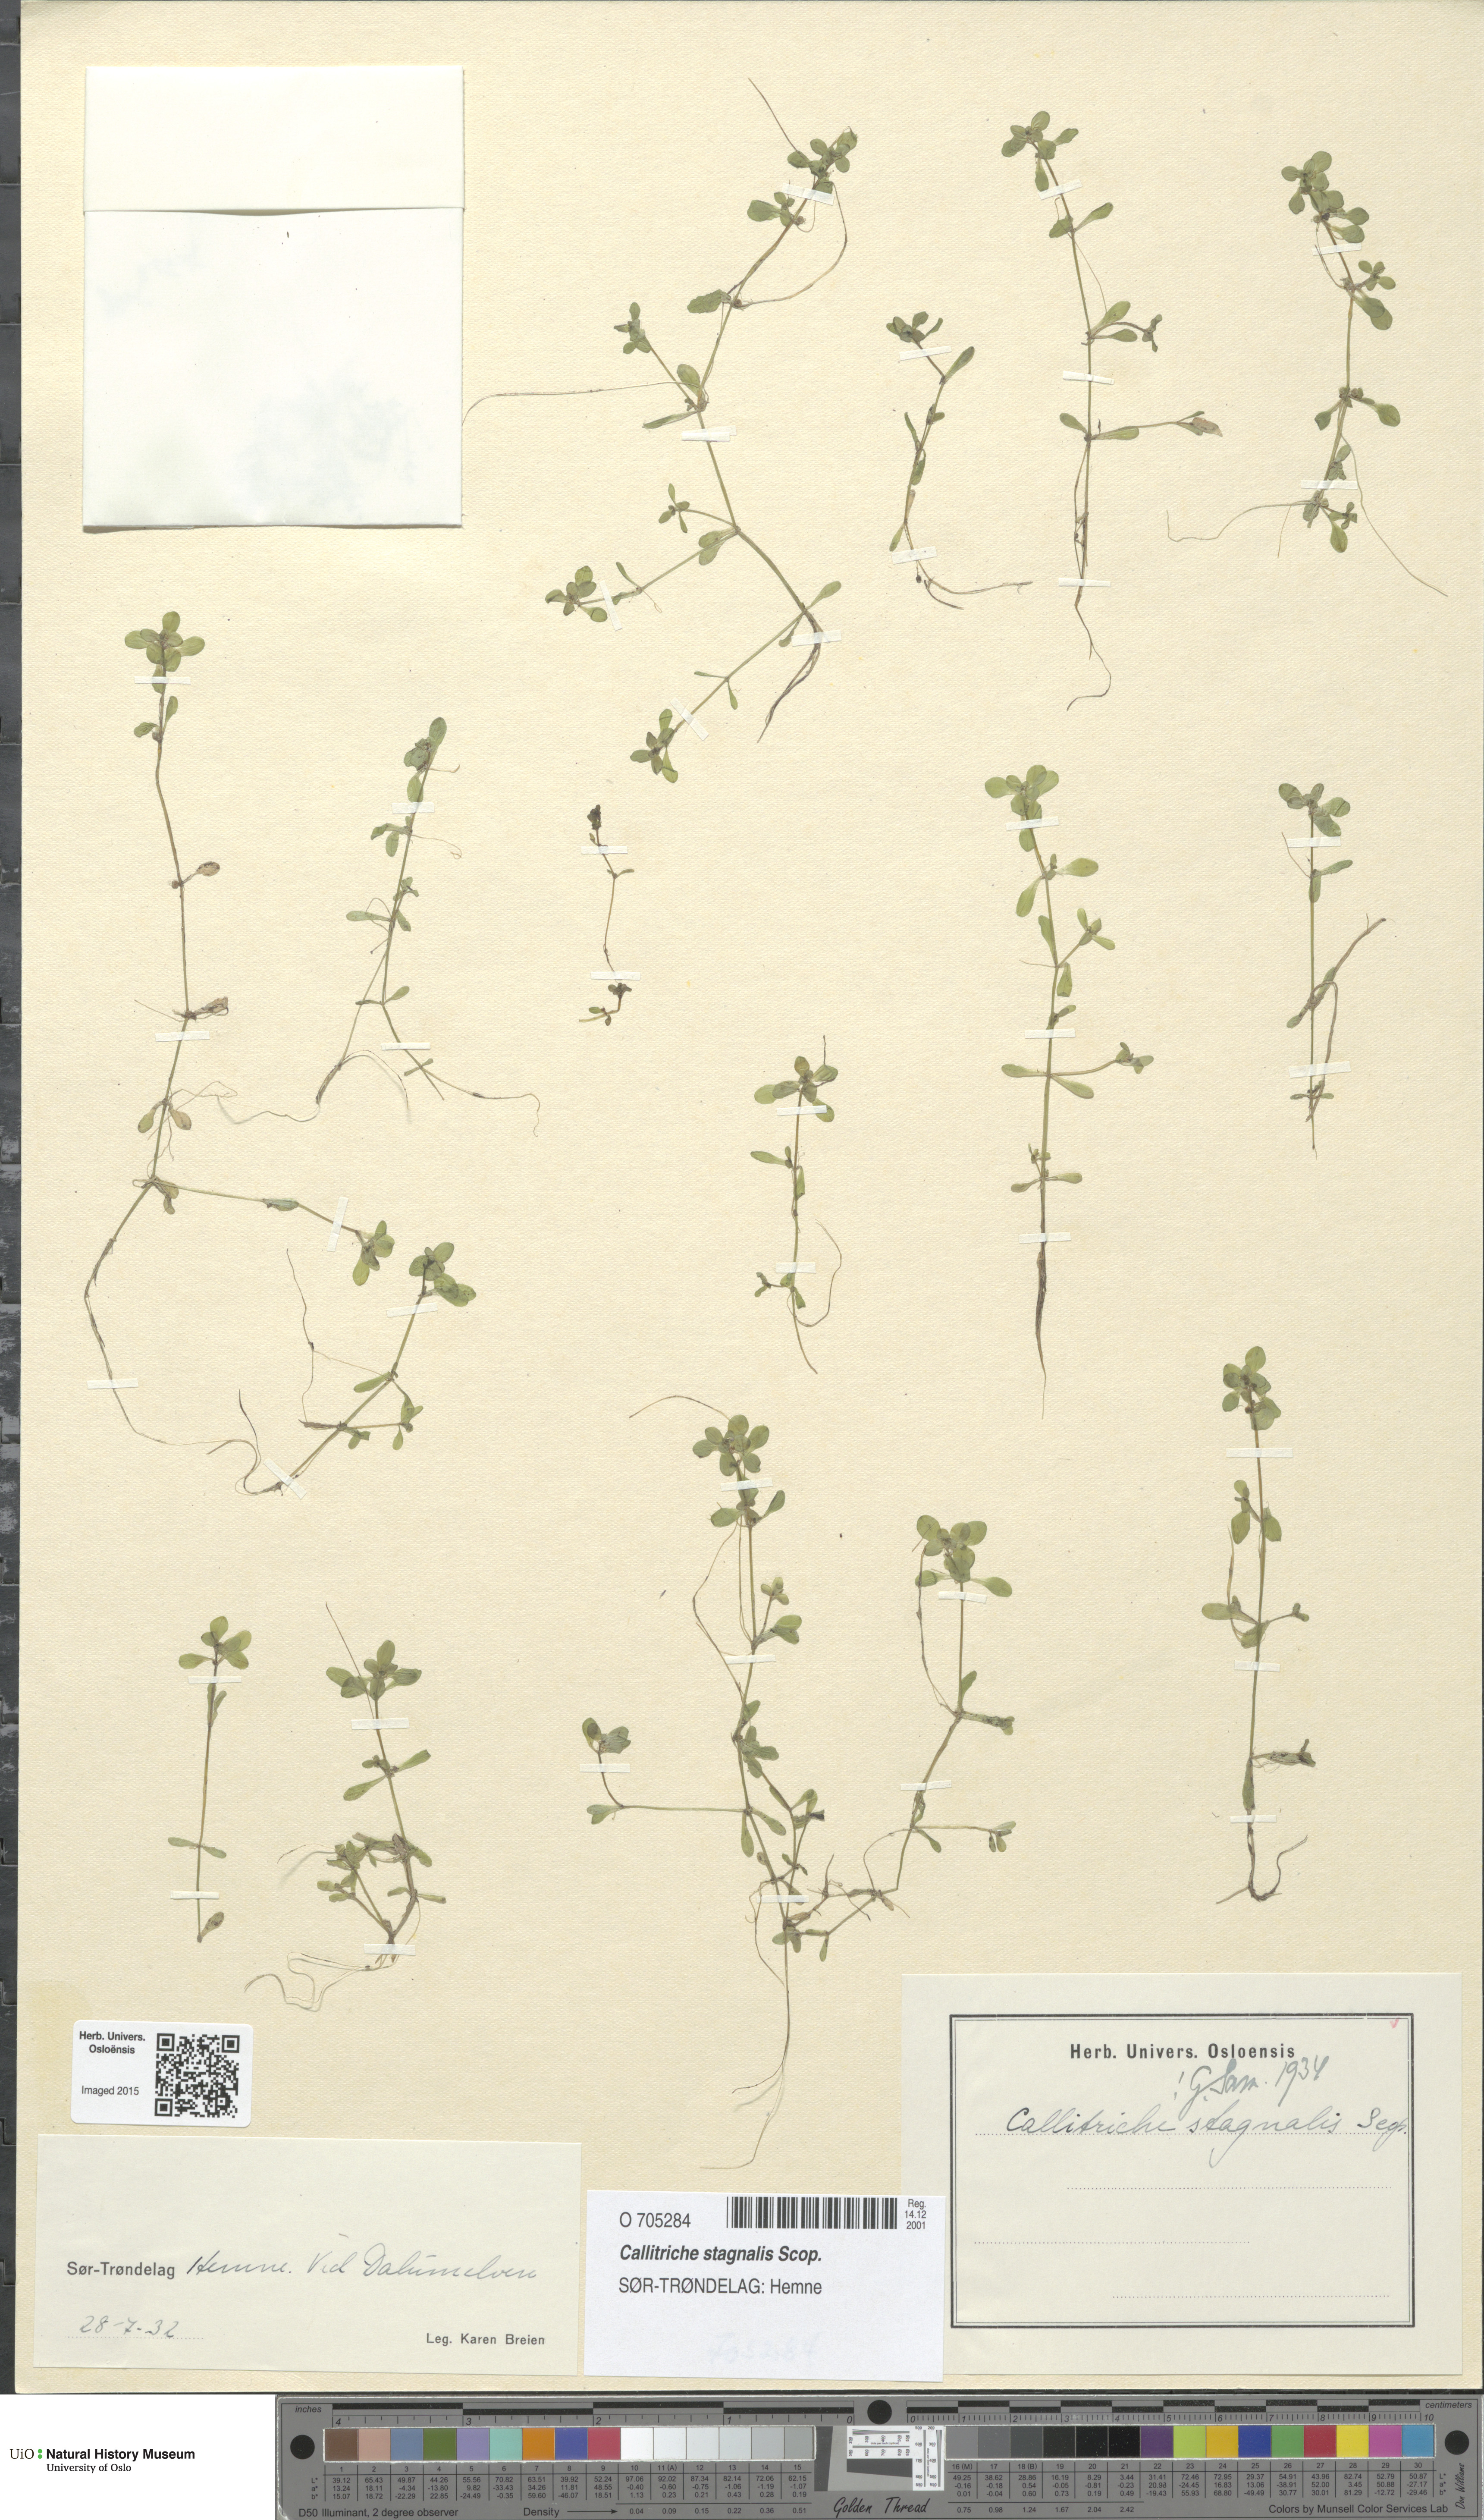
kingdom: Plantae
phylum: Tracheophyta
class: Magnoliopsida
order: Lamiales
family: Plantaginaceae
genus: Callitriche
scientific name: Callitriche stagnalis
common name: Common water-starwort
